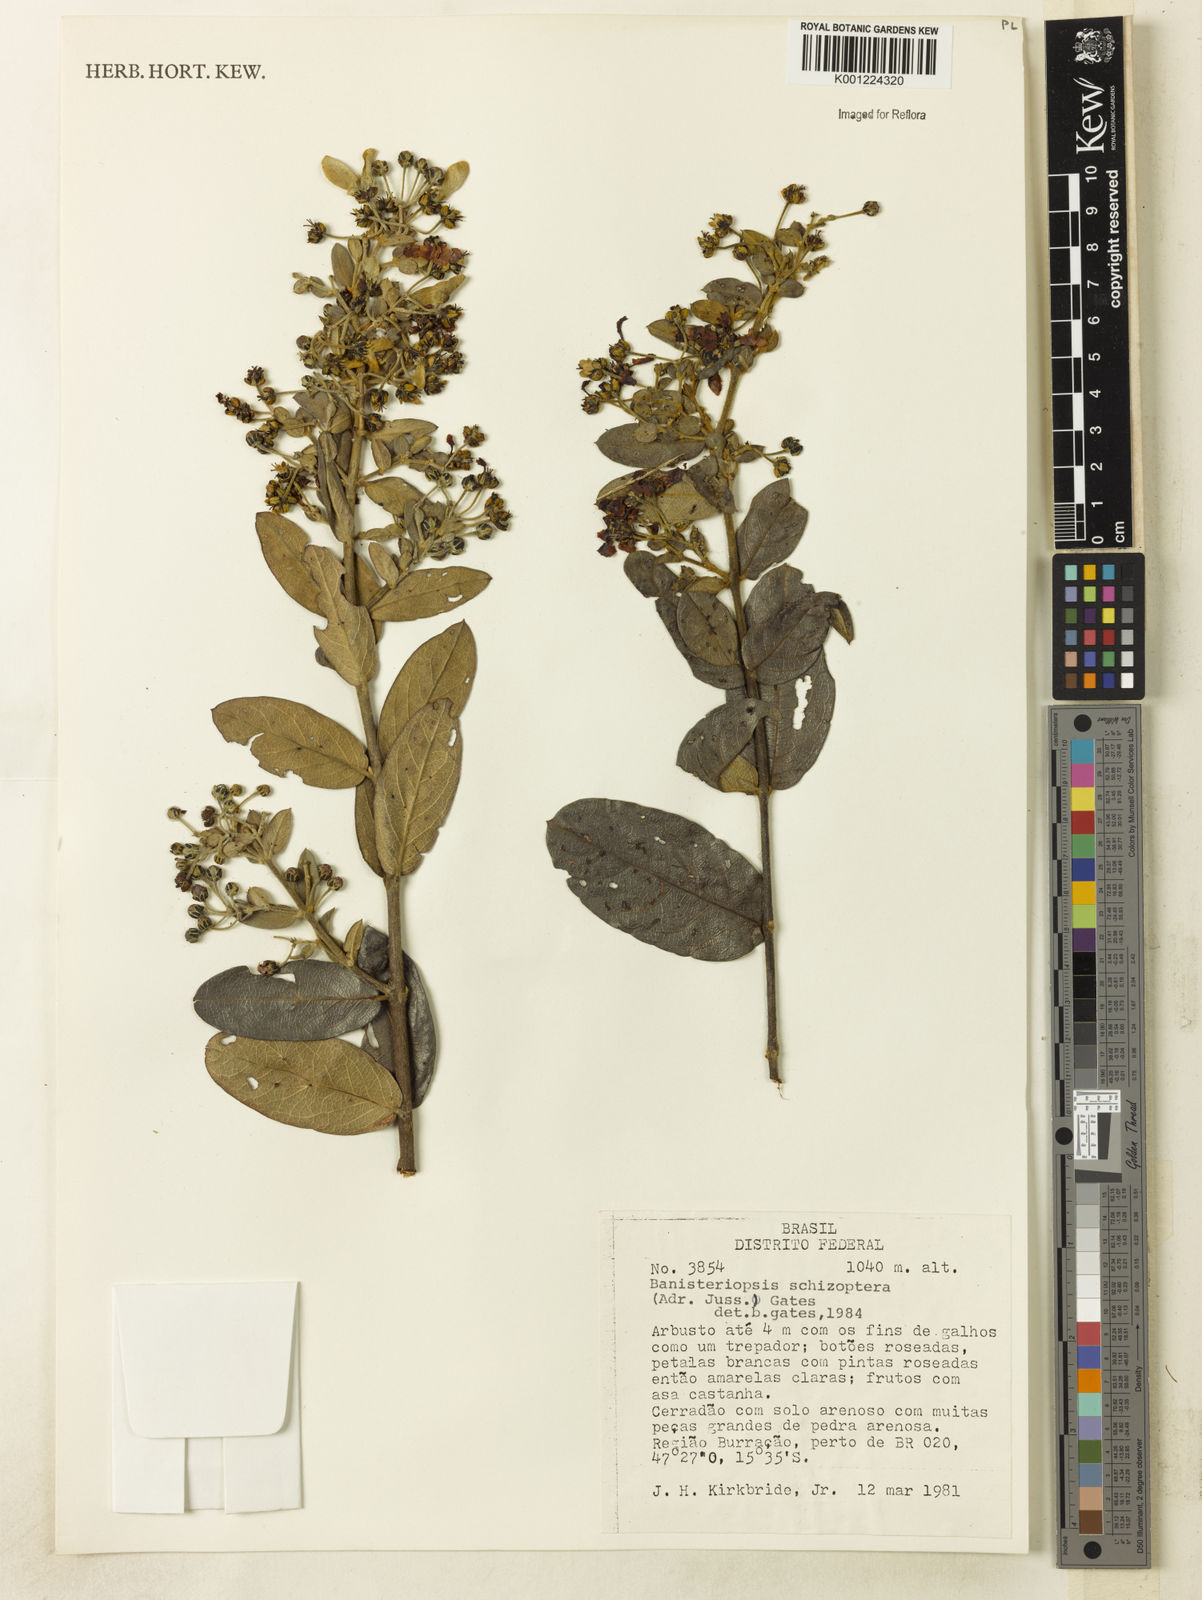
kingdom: Plantae
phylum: Tracheophyta
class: Magnoliopsida
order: Malpighiales
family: Malpighiaceae
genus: Banisteriopsis
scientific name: Banisteriopsis schizoptera
